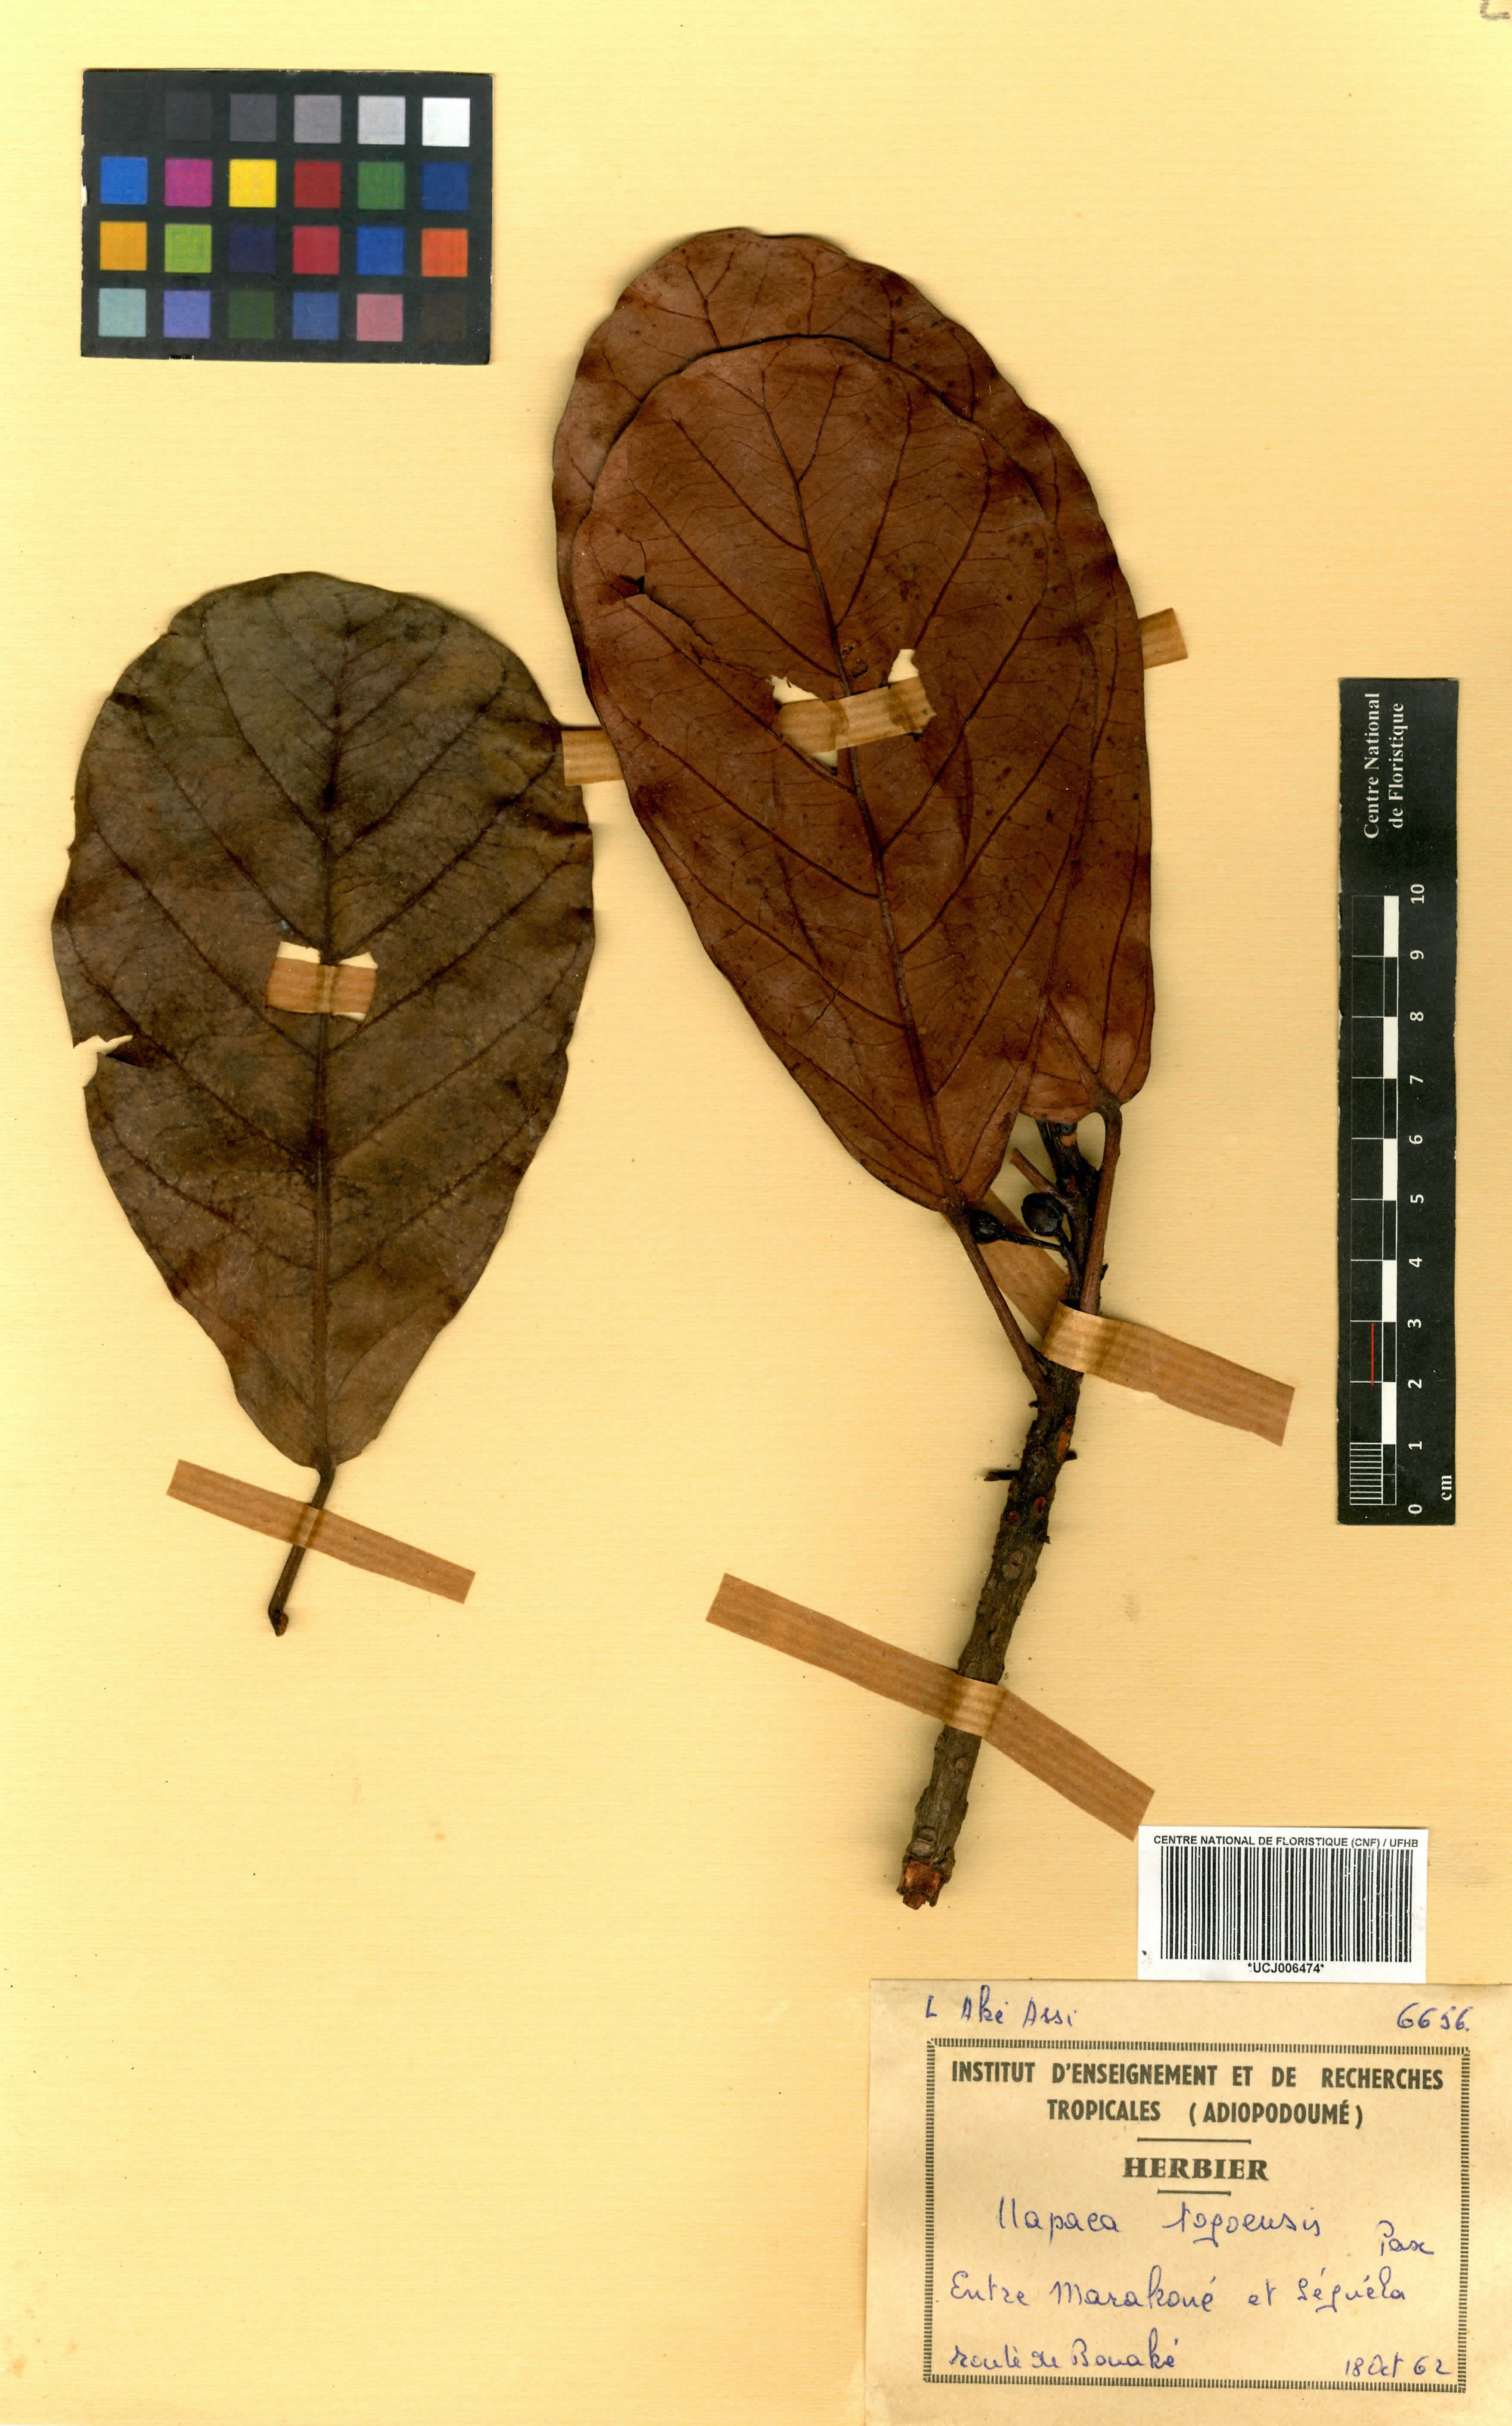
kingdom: Plantae
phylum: Tracheophyta
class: Magnoliopsida
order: Malpighiales
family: Phyllanthaceae
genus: Uapaca
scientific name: Uapaca togoensis
